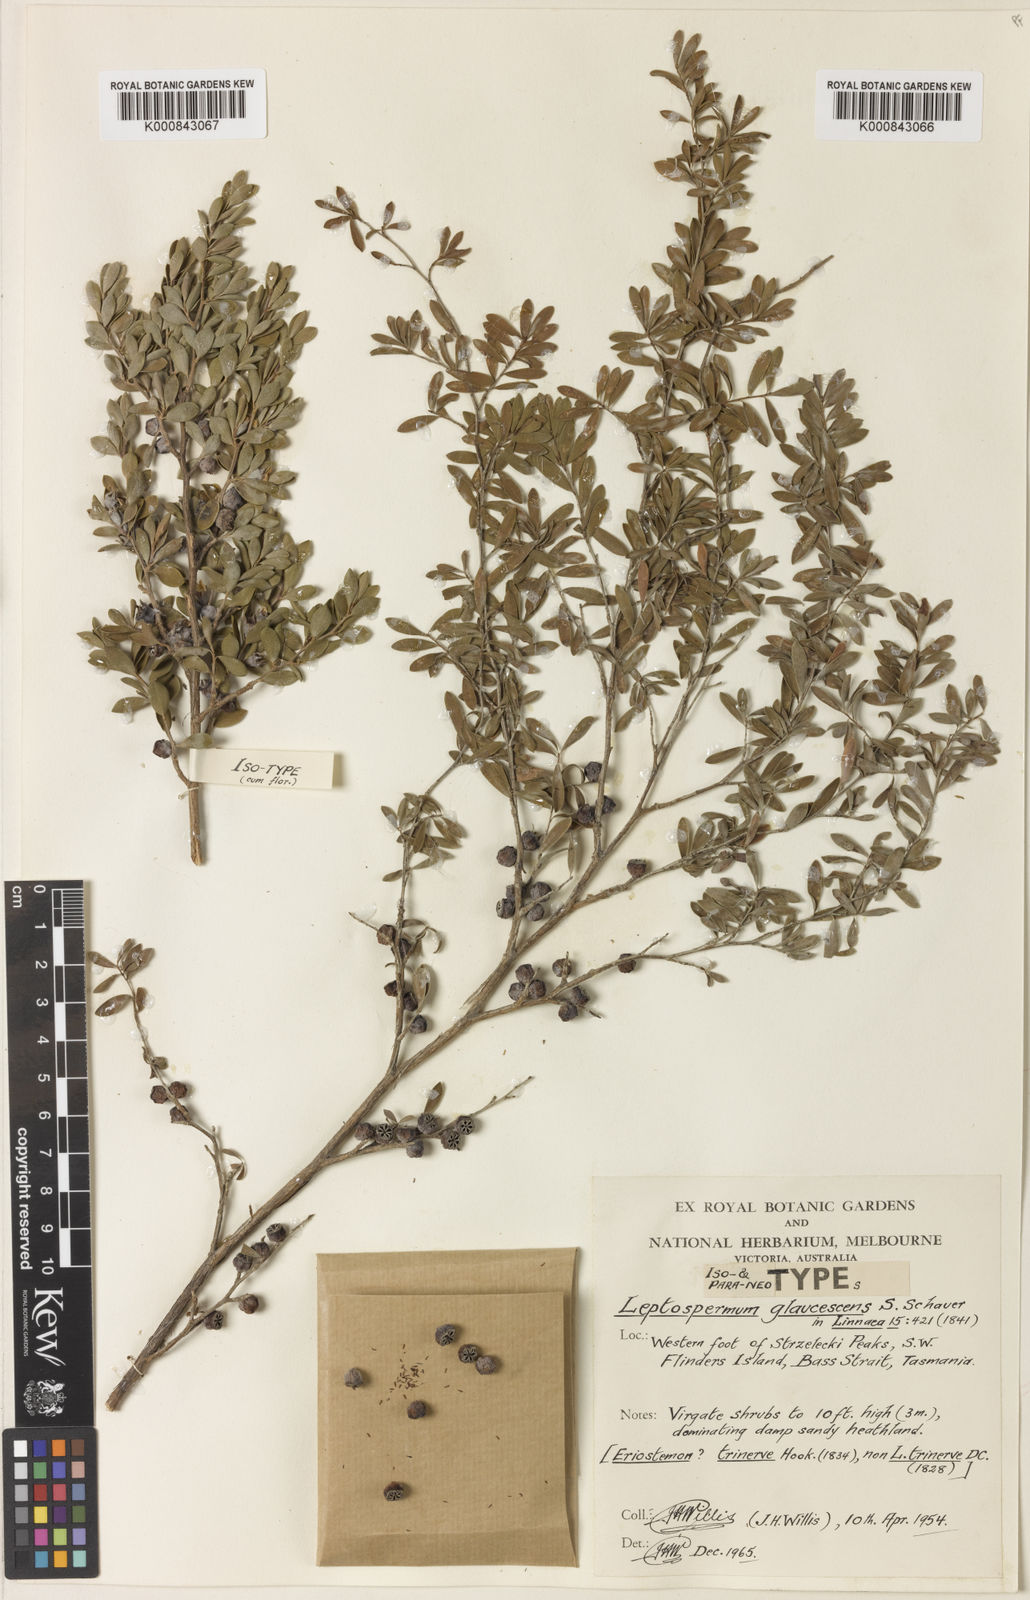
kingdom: Plantae
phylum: Tracheophyta
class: Magnoliopsida
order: Myrtales
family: Myrtaceae
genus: Leptospermum
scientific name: Leptospermum glaucescens
